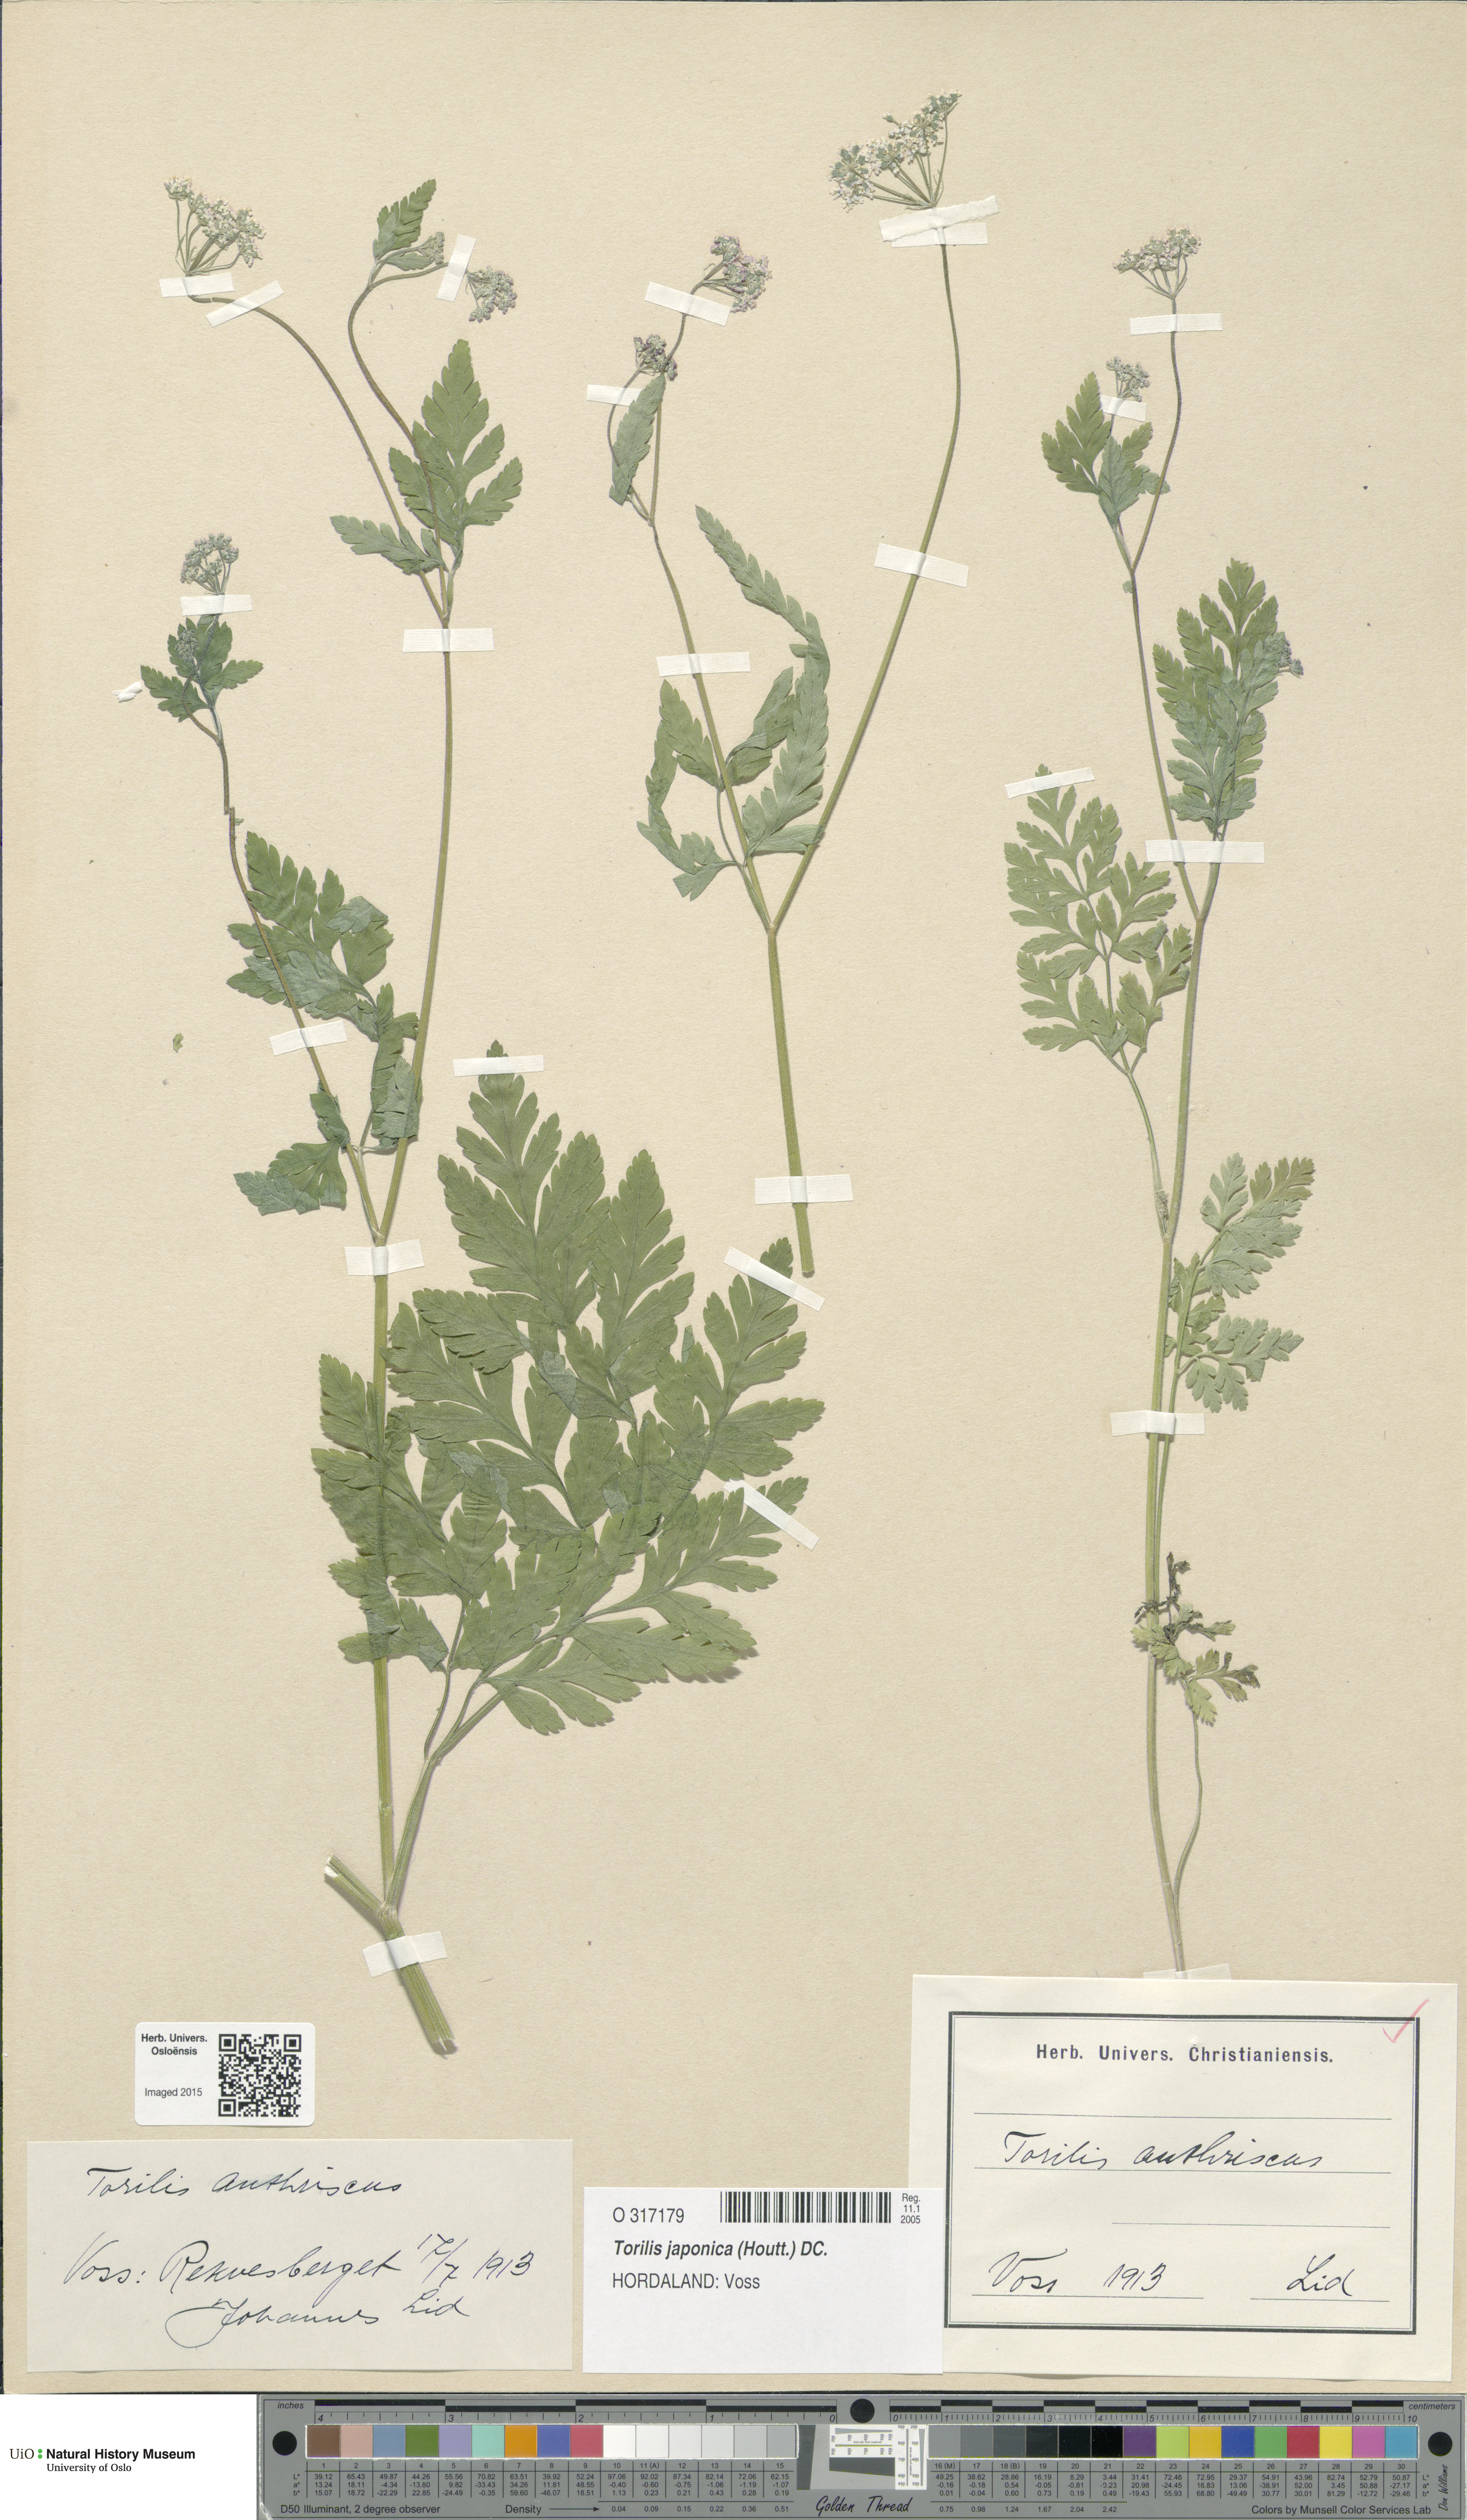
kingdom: Plantae
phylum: Tracheophyta
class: Magnoliopsida
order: Apiales
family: Apiaceae
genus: Torilis
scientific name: Torilis japonica
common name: Upright hedge-parsley
